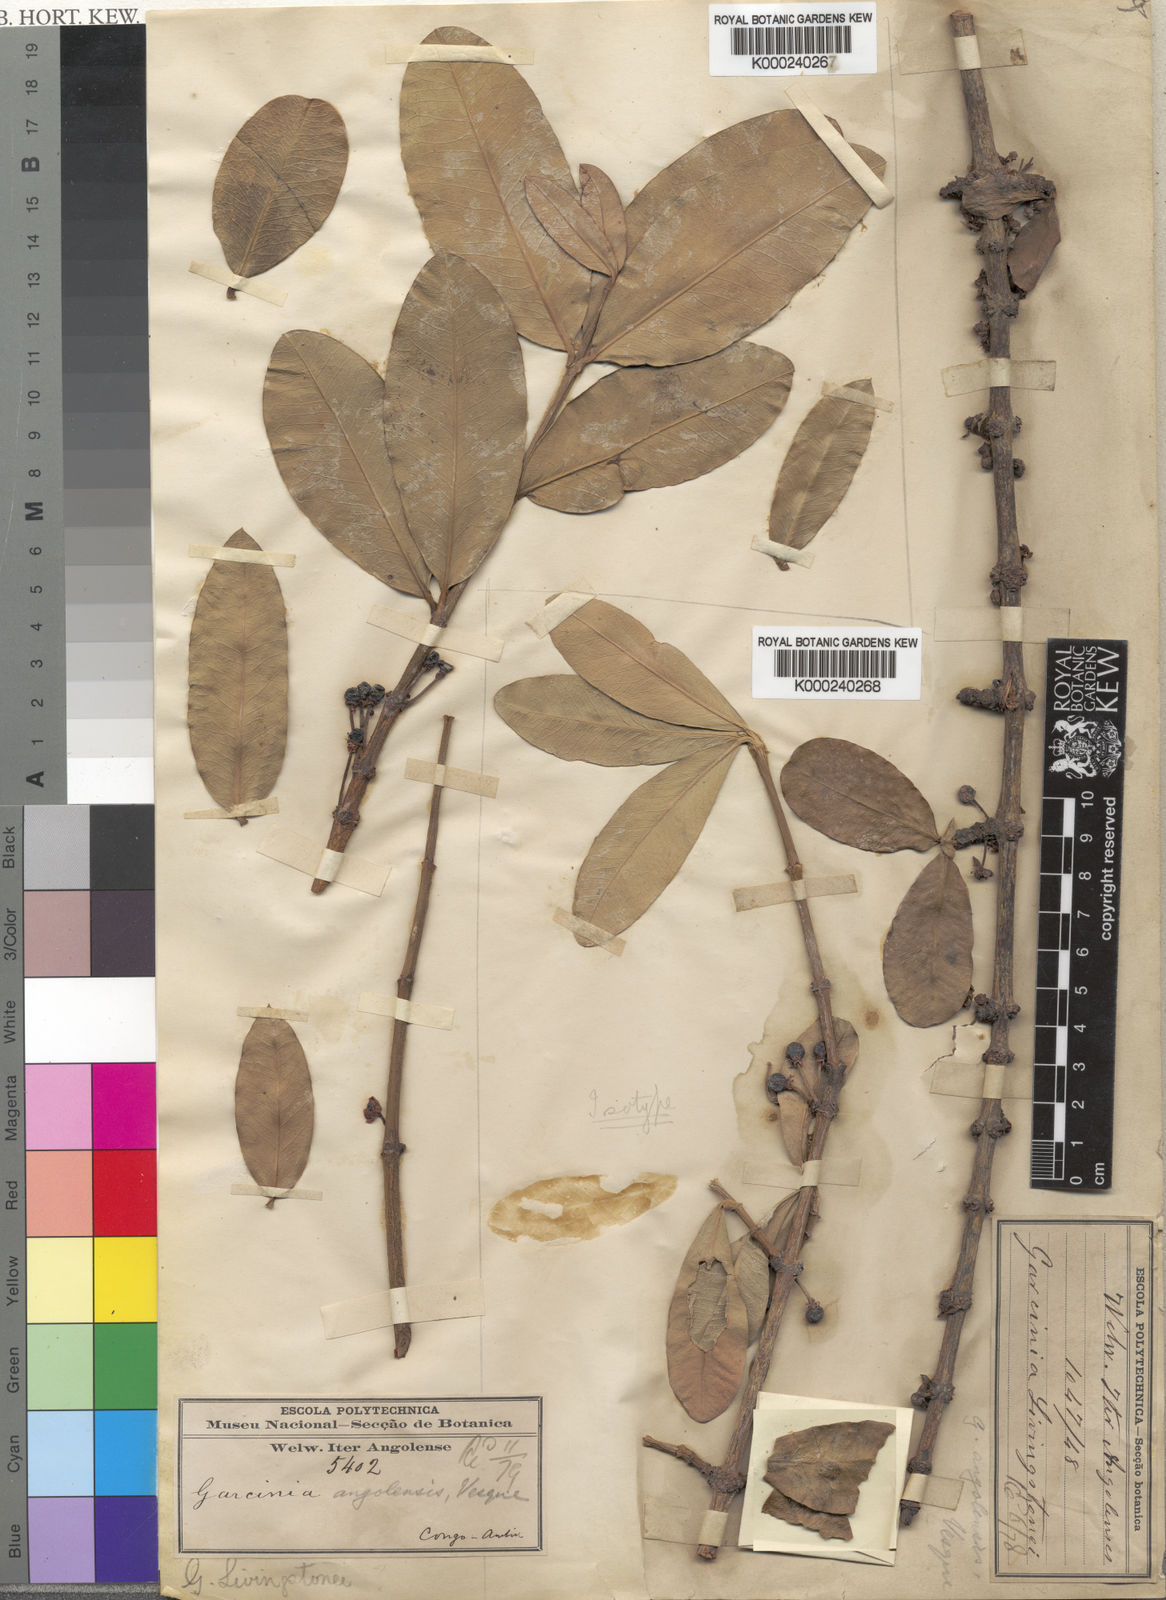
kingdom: Plantae
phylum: Tracheophyta
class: Magnoliopsida
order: Malpighiales
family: Clusiaceae
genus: Garcinia
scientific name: Garcinia livingstonei
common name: African mangosteen
